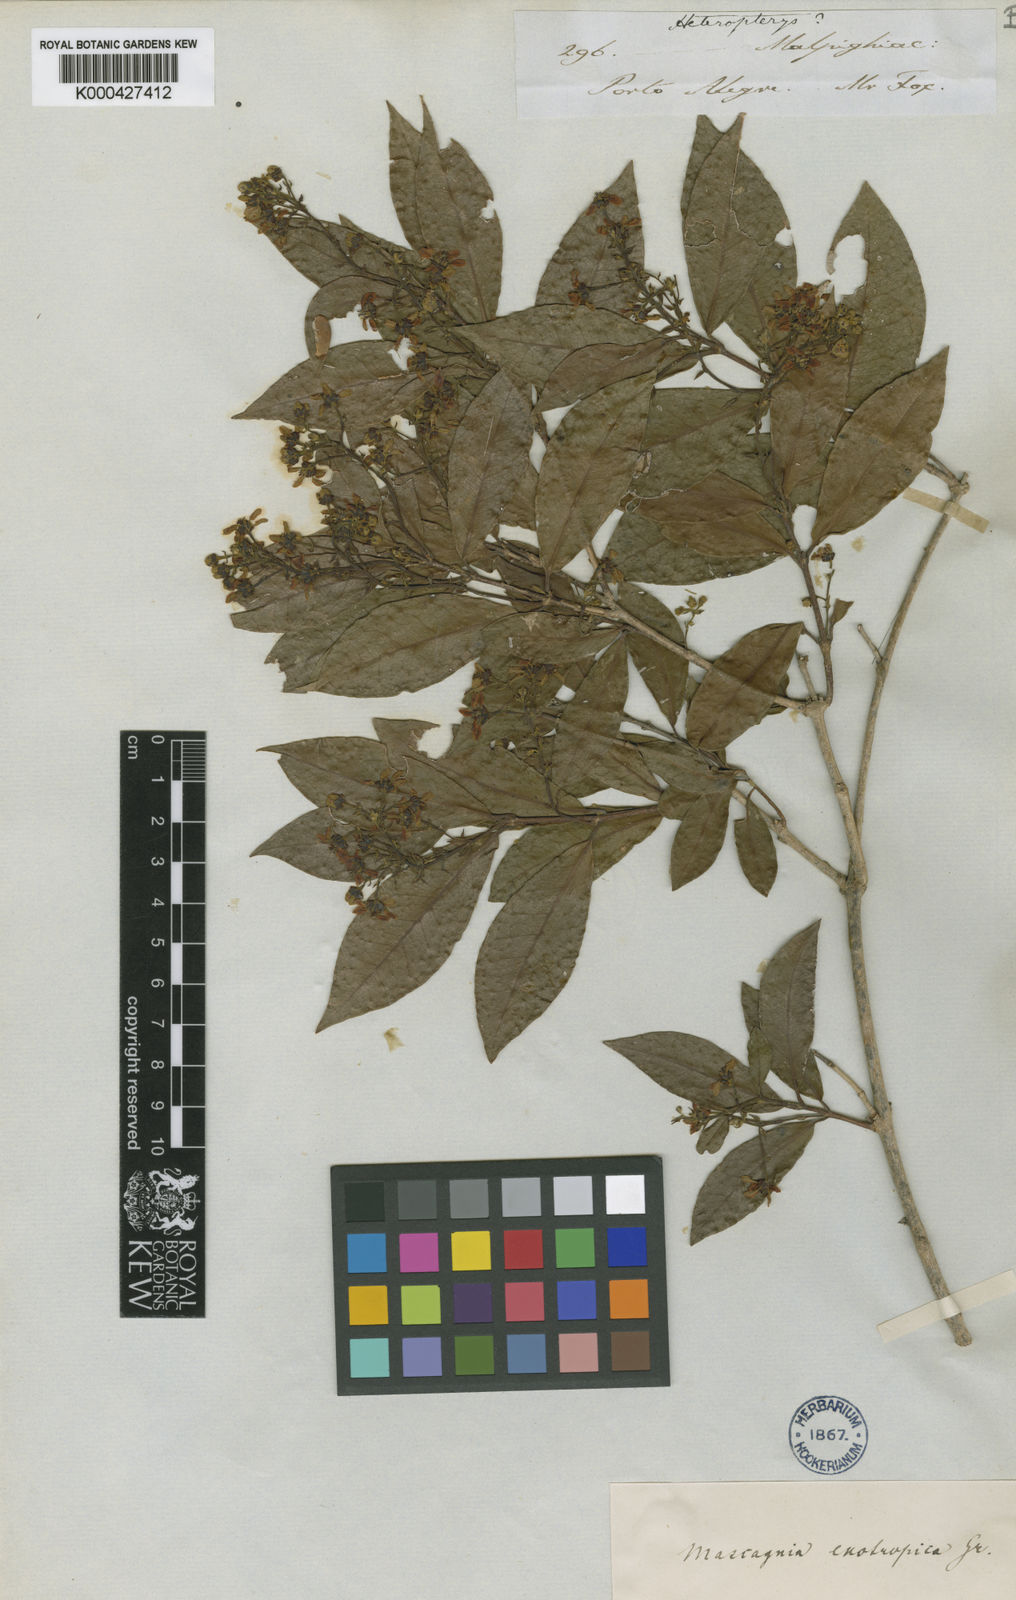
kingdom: Plantae
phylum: Tracheophyta
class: Magnoliopsida
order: Malpighiales
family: Malpighiaceae
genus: Amorimia
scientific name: Amorimia exotropica
